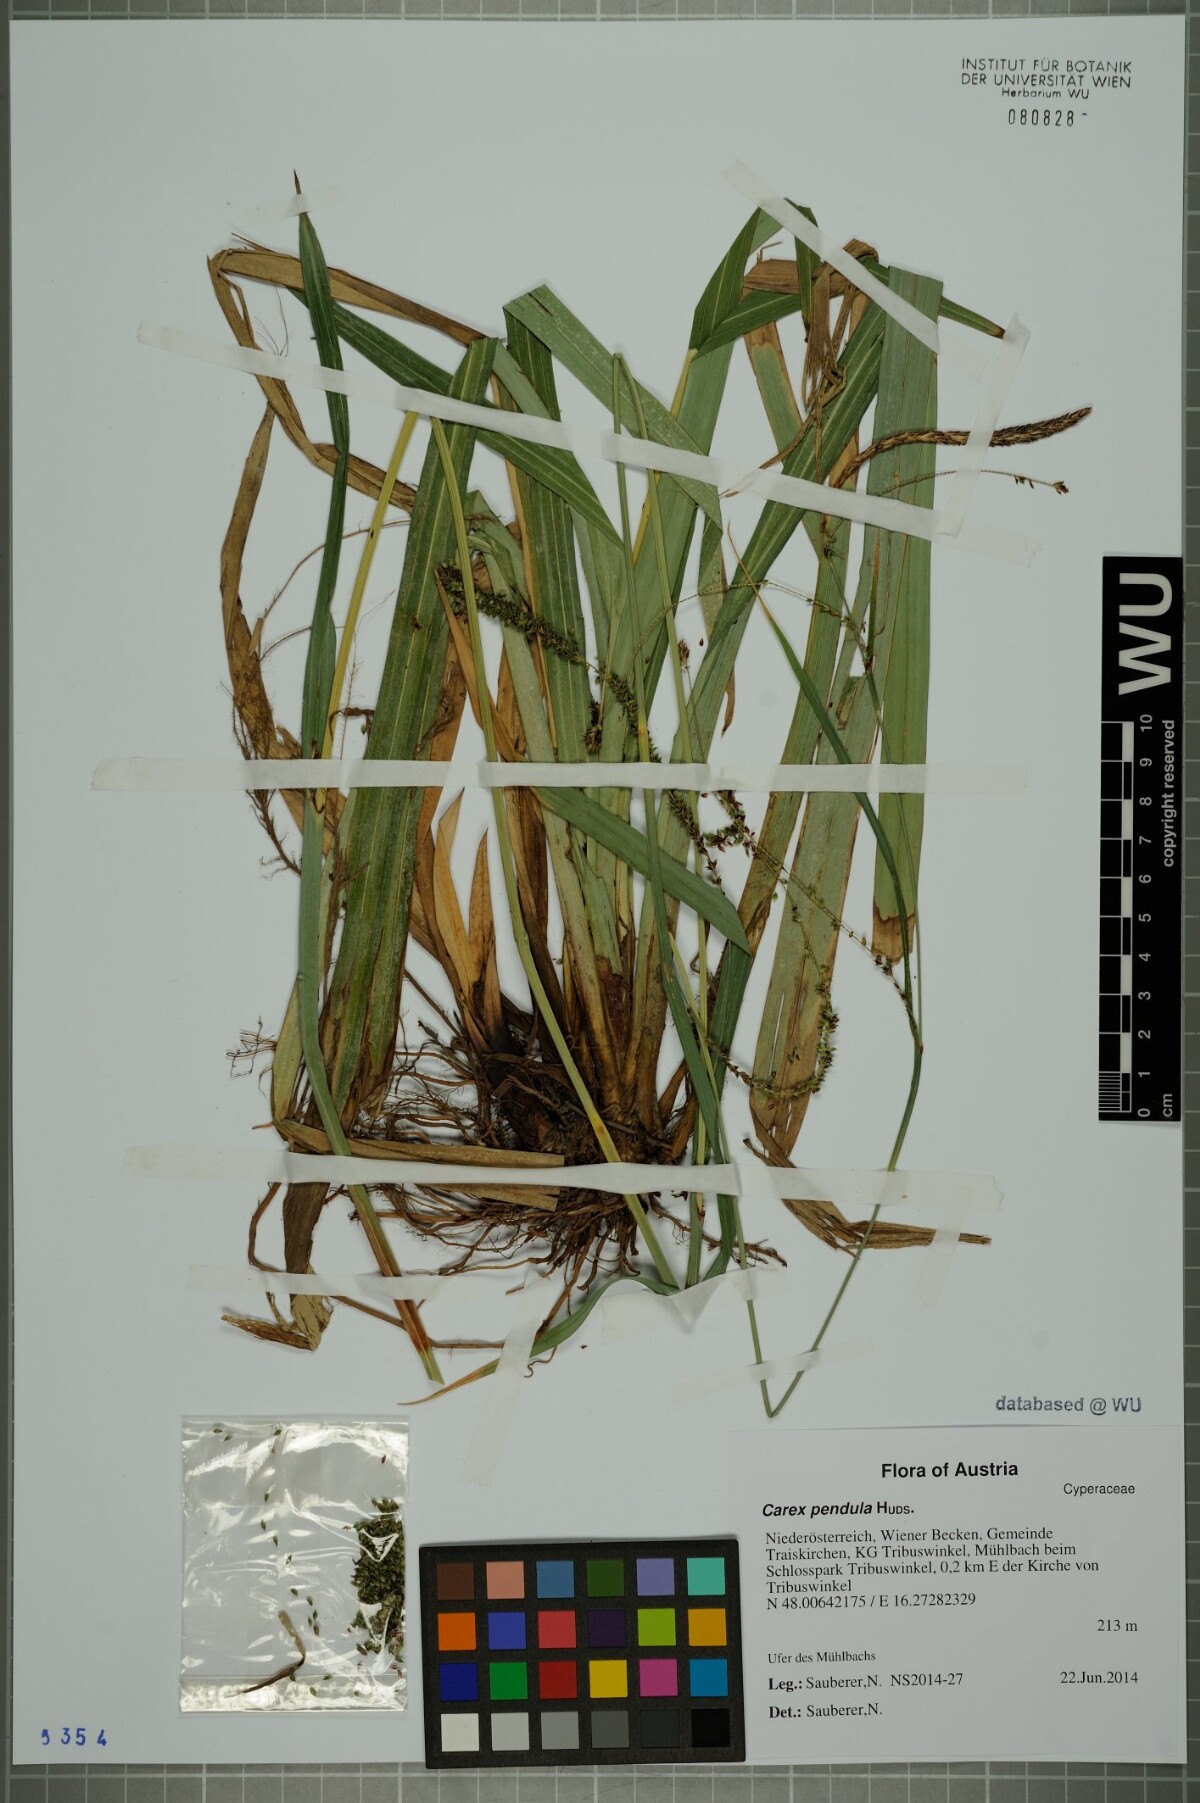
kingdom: Plantae
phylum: Tracheophyta
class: Liliopsida
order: Poales
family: Cyperaceae
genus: Carex
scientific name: Carex agastachys
